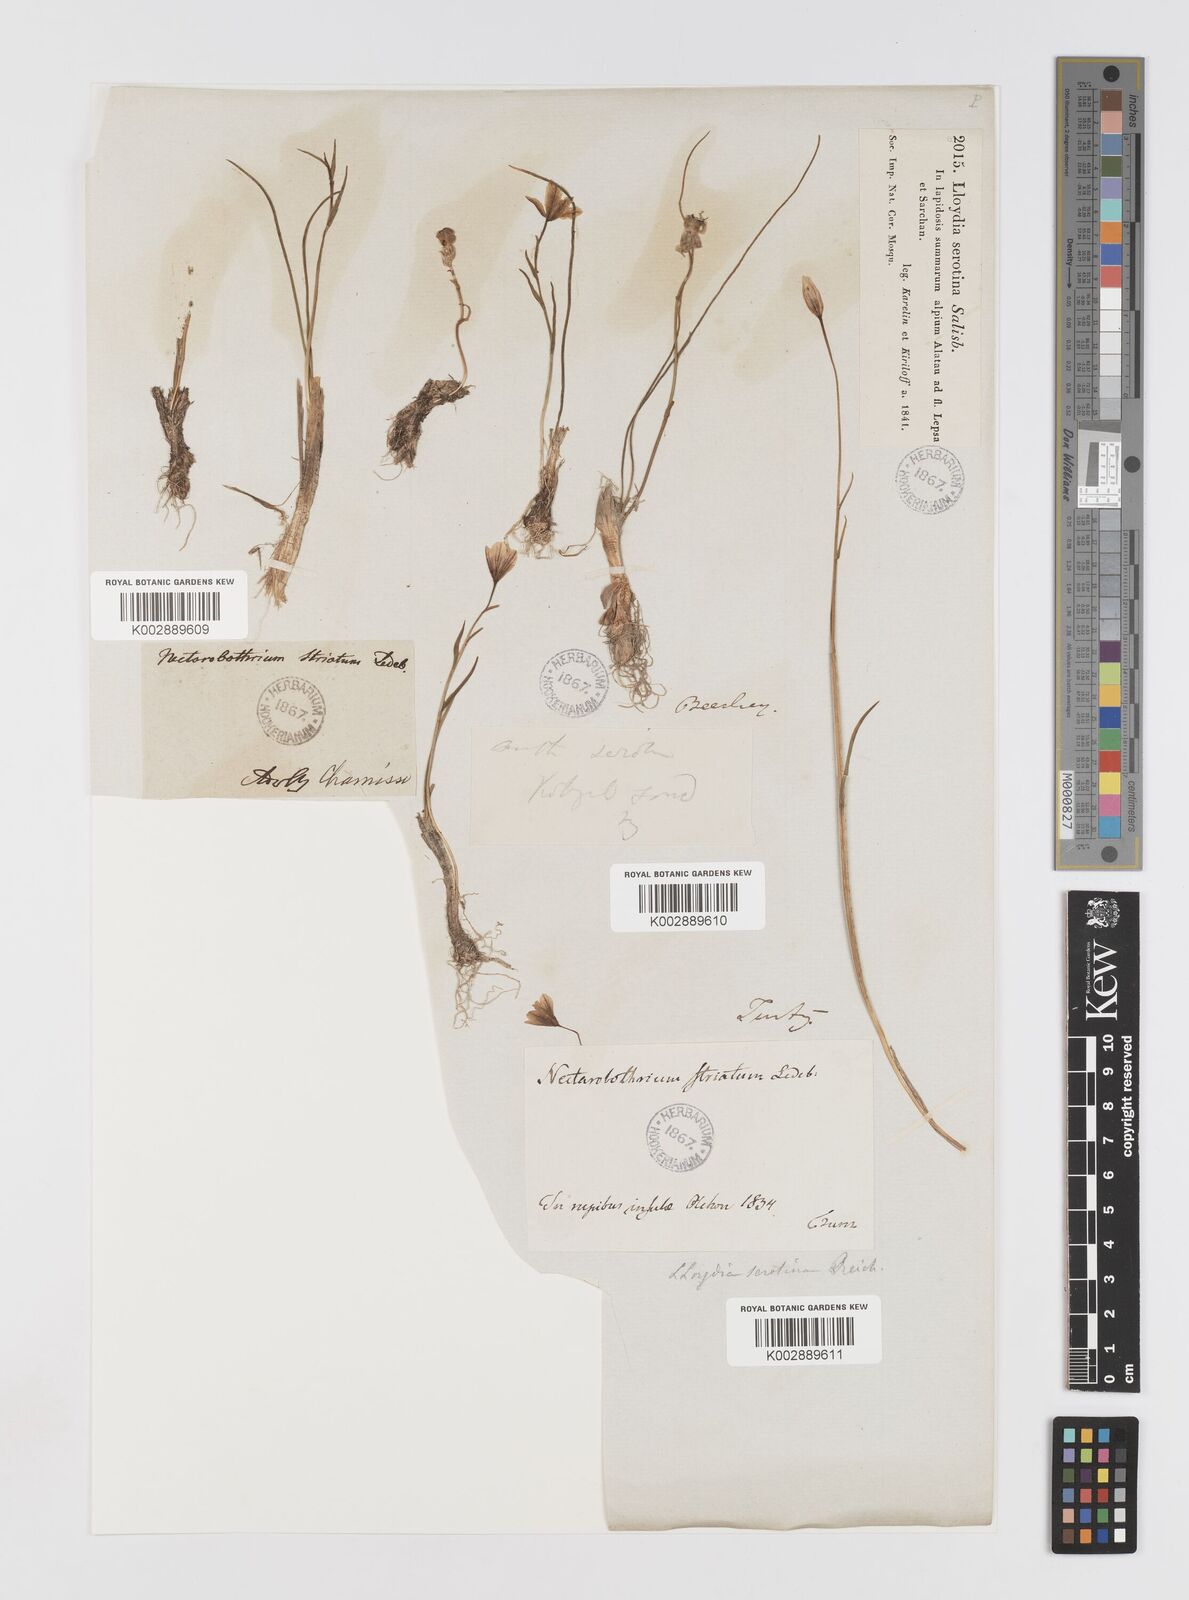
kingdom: Plantae
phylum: Tracheophyta
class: Liliopsida
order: Liliales
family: Liliaceae
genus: Gagea
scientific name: Gagea serotina
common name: Snowdon lily
